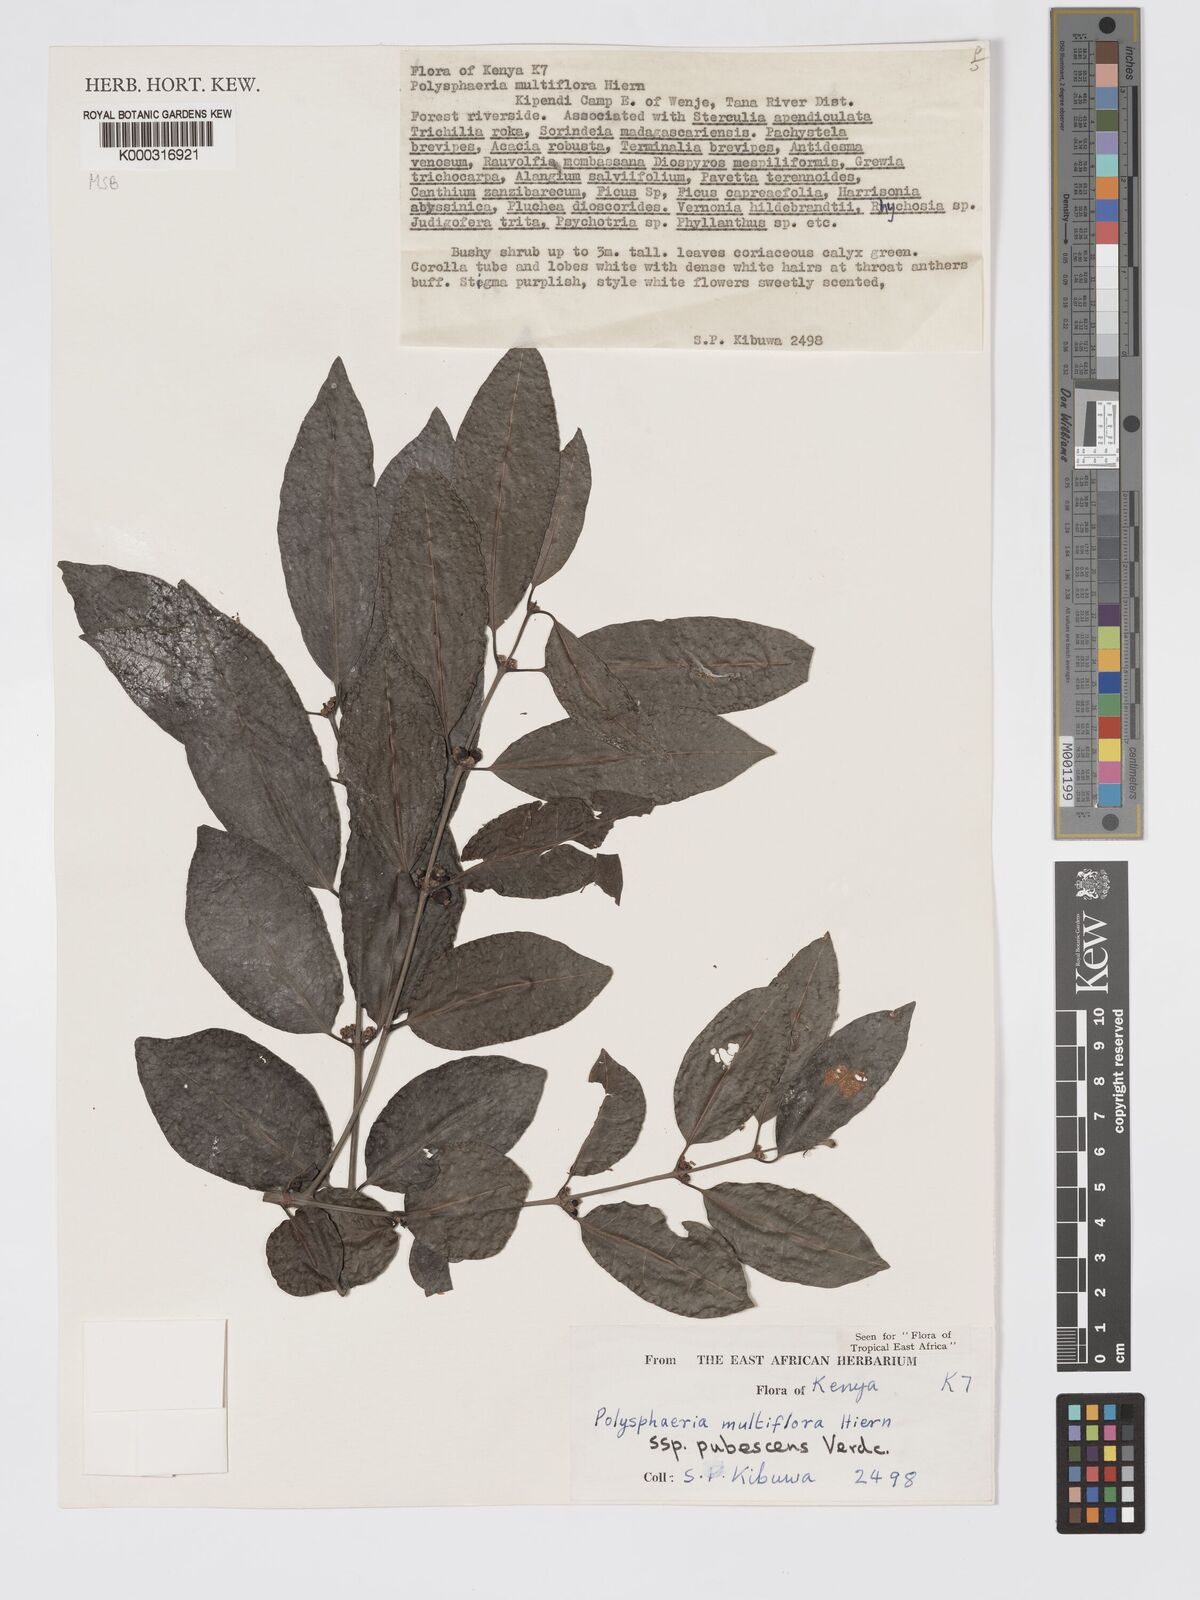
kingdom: Plantae
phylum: Tracheophyta
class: Magnoliopsida
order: Gentianales
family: Rubiaceae
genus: Polysphaeria
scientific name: Polysphaeria multiflora
